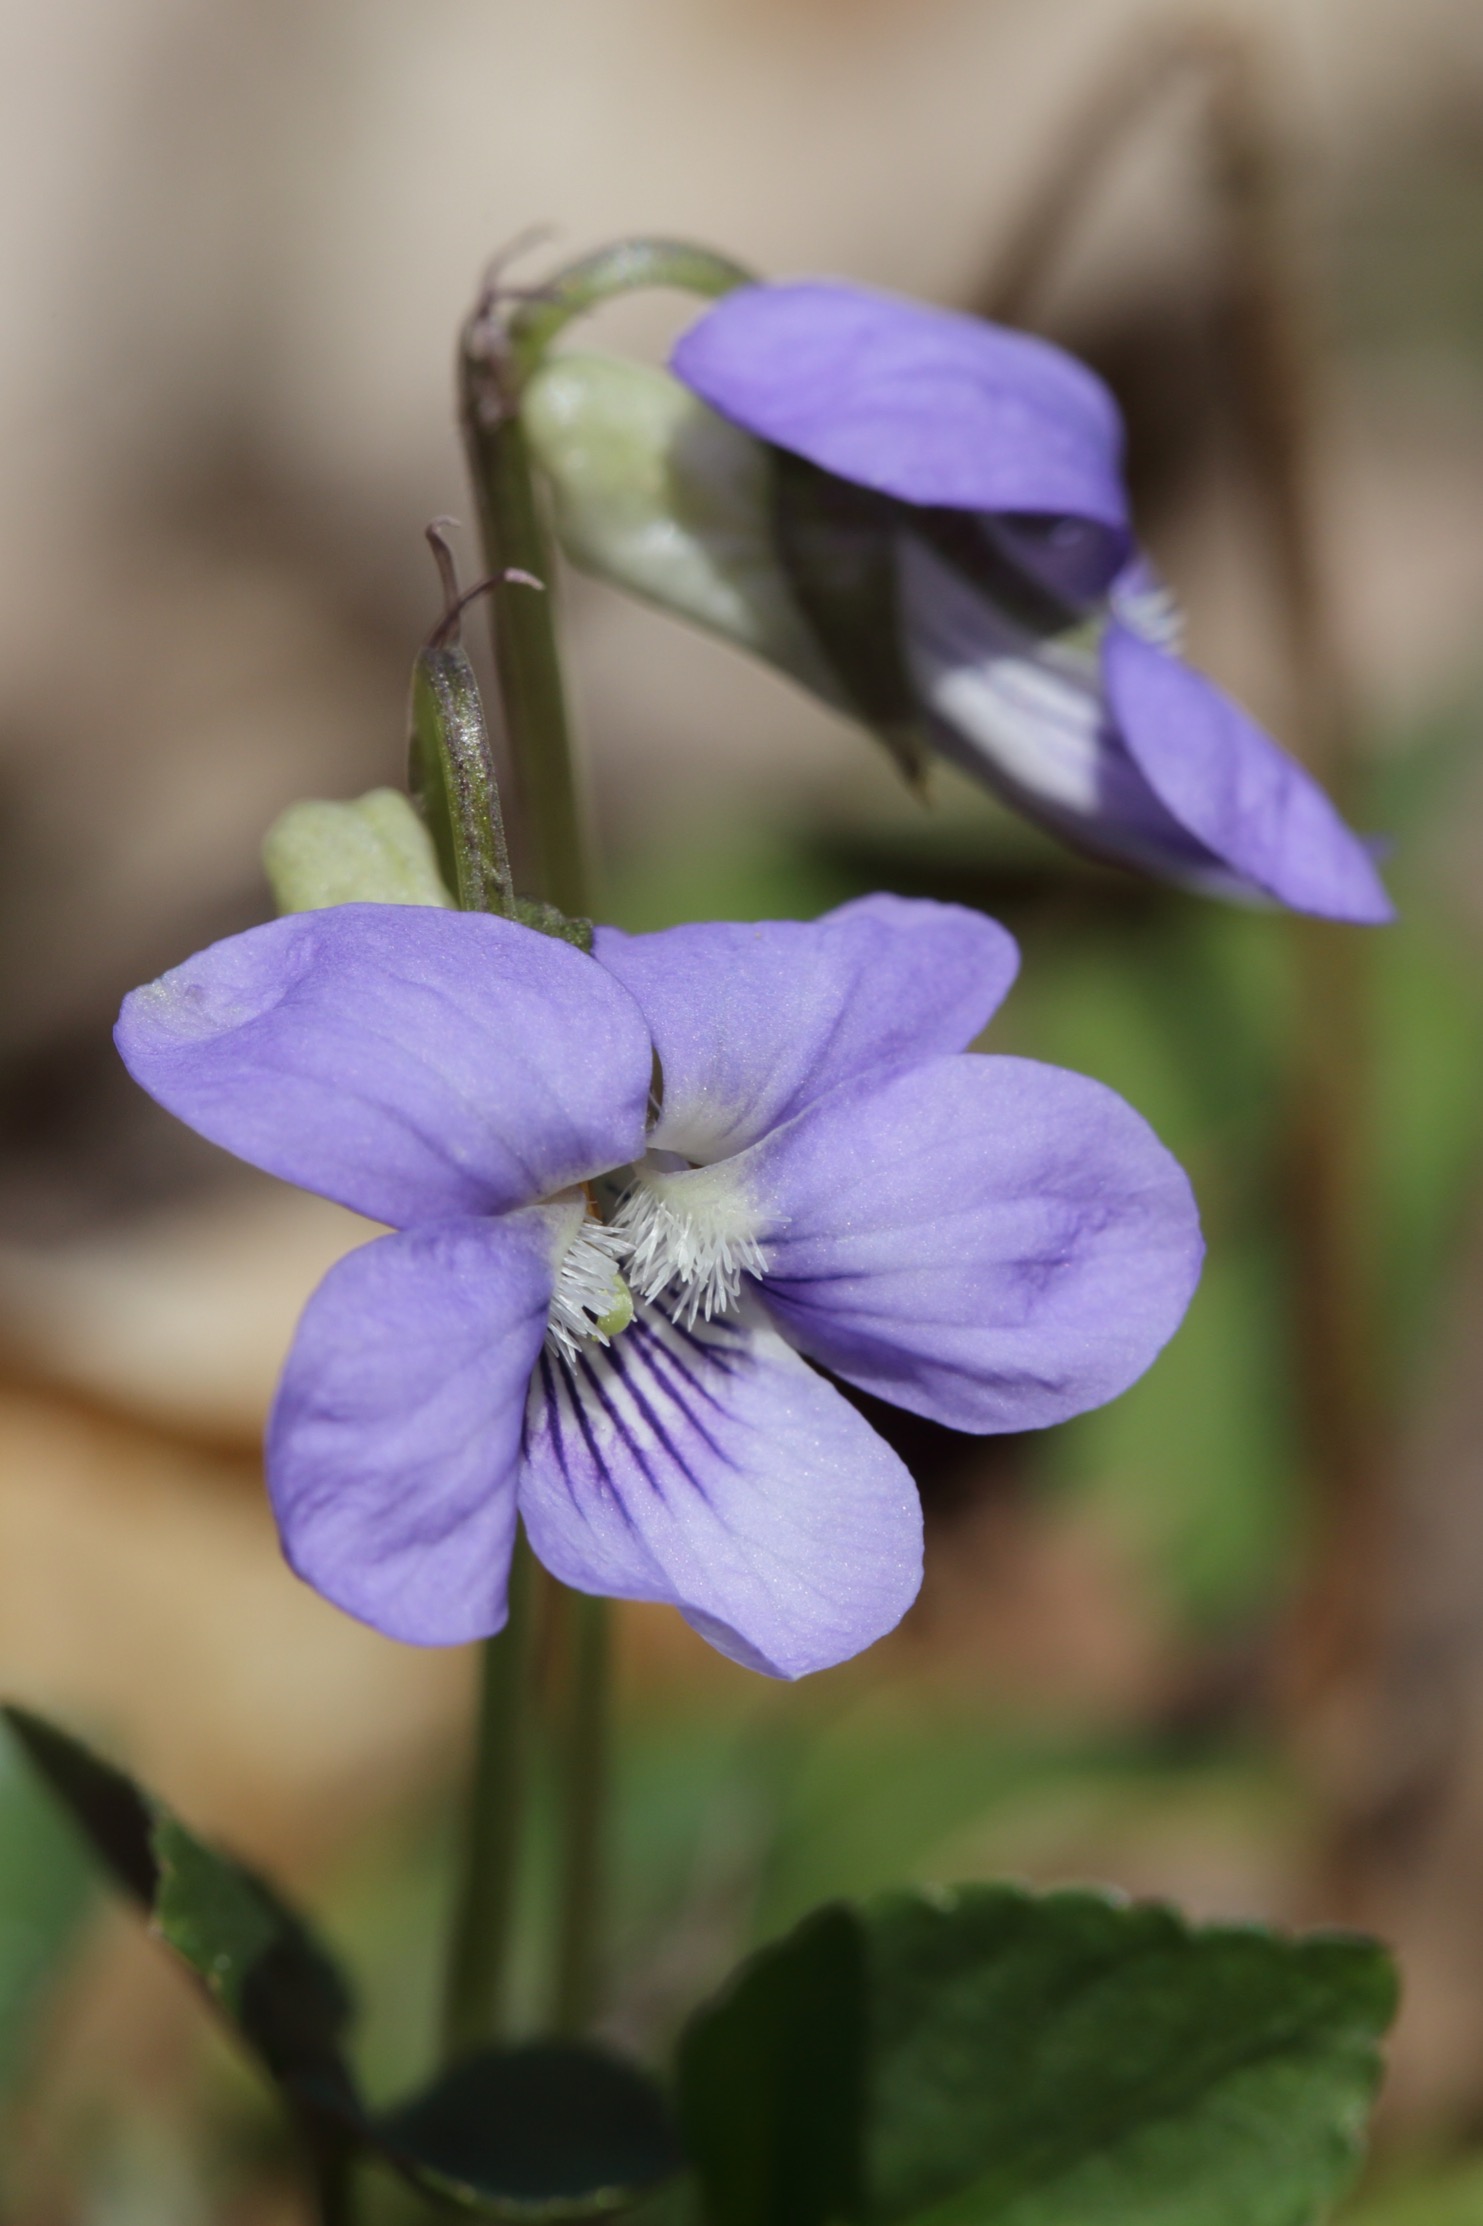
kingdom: Plantae
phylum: Tracheophyta
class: Magnoliopsida
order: Malpighiales
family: Violaceae
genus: Viola
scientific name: Viola riviniana
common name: Krat-viol
